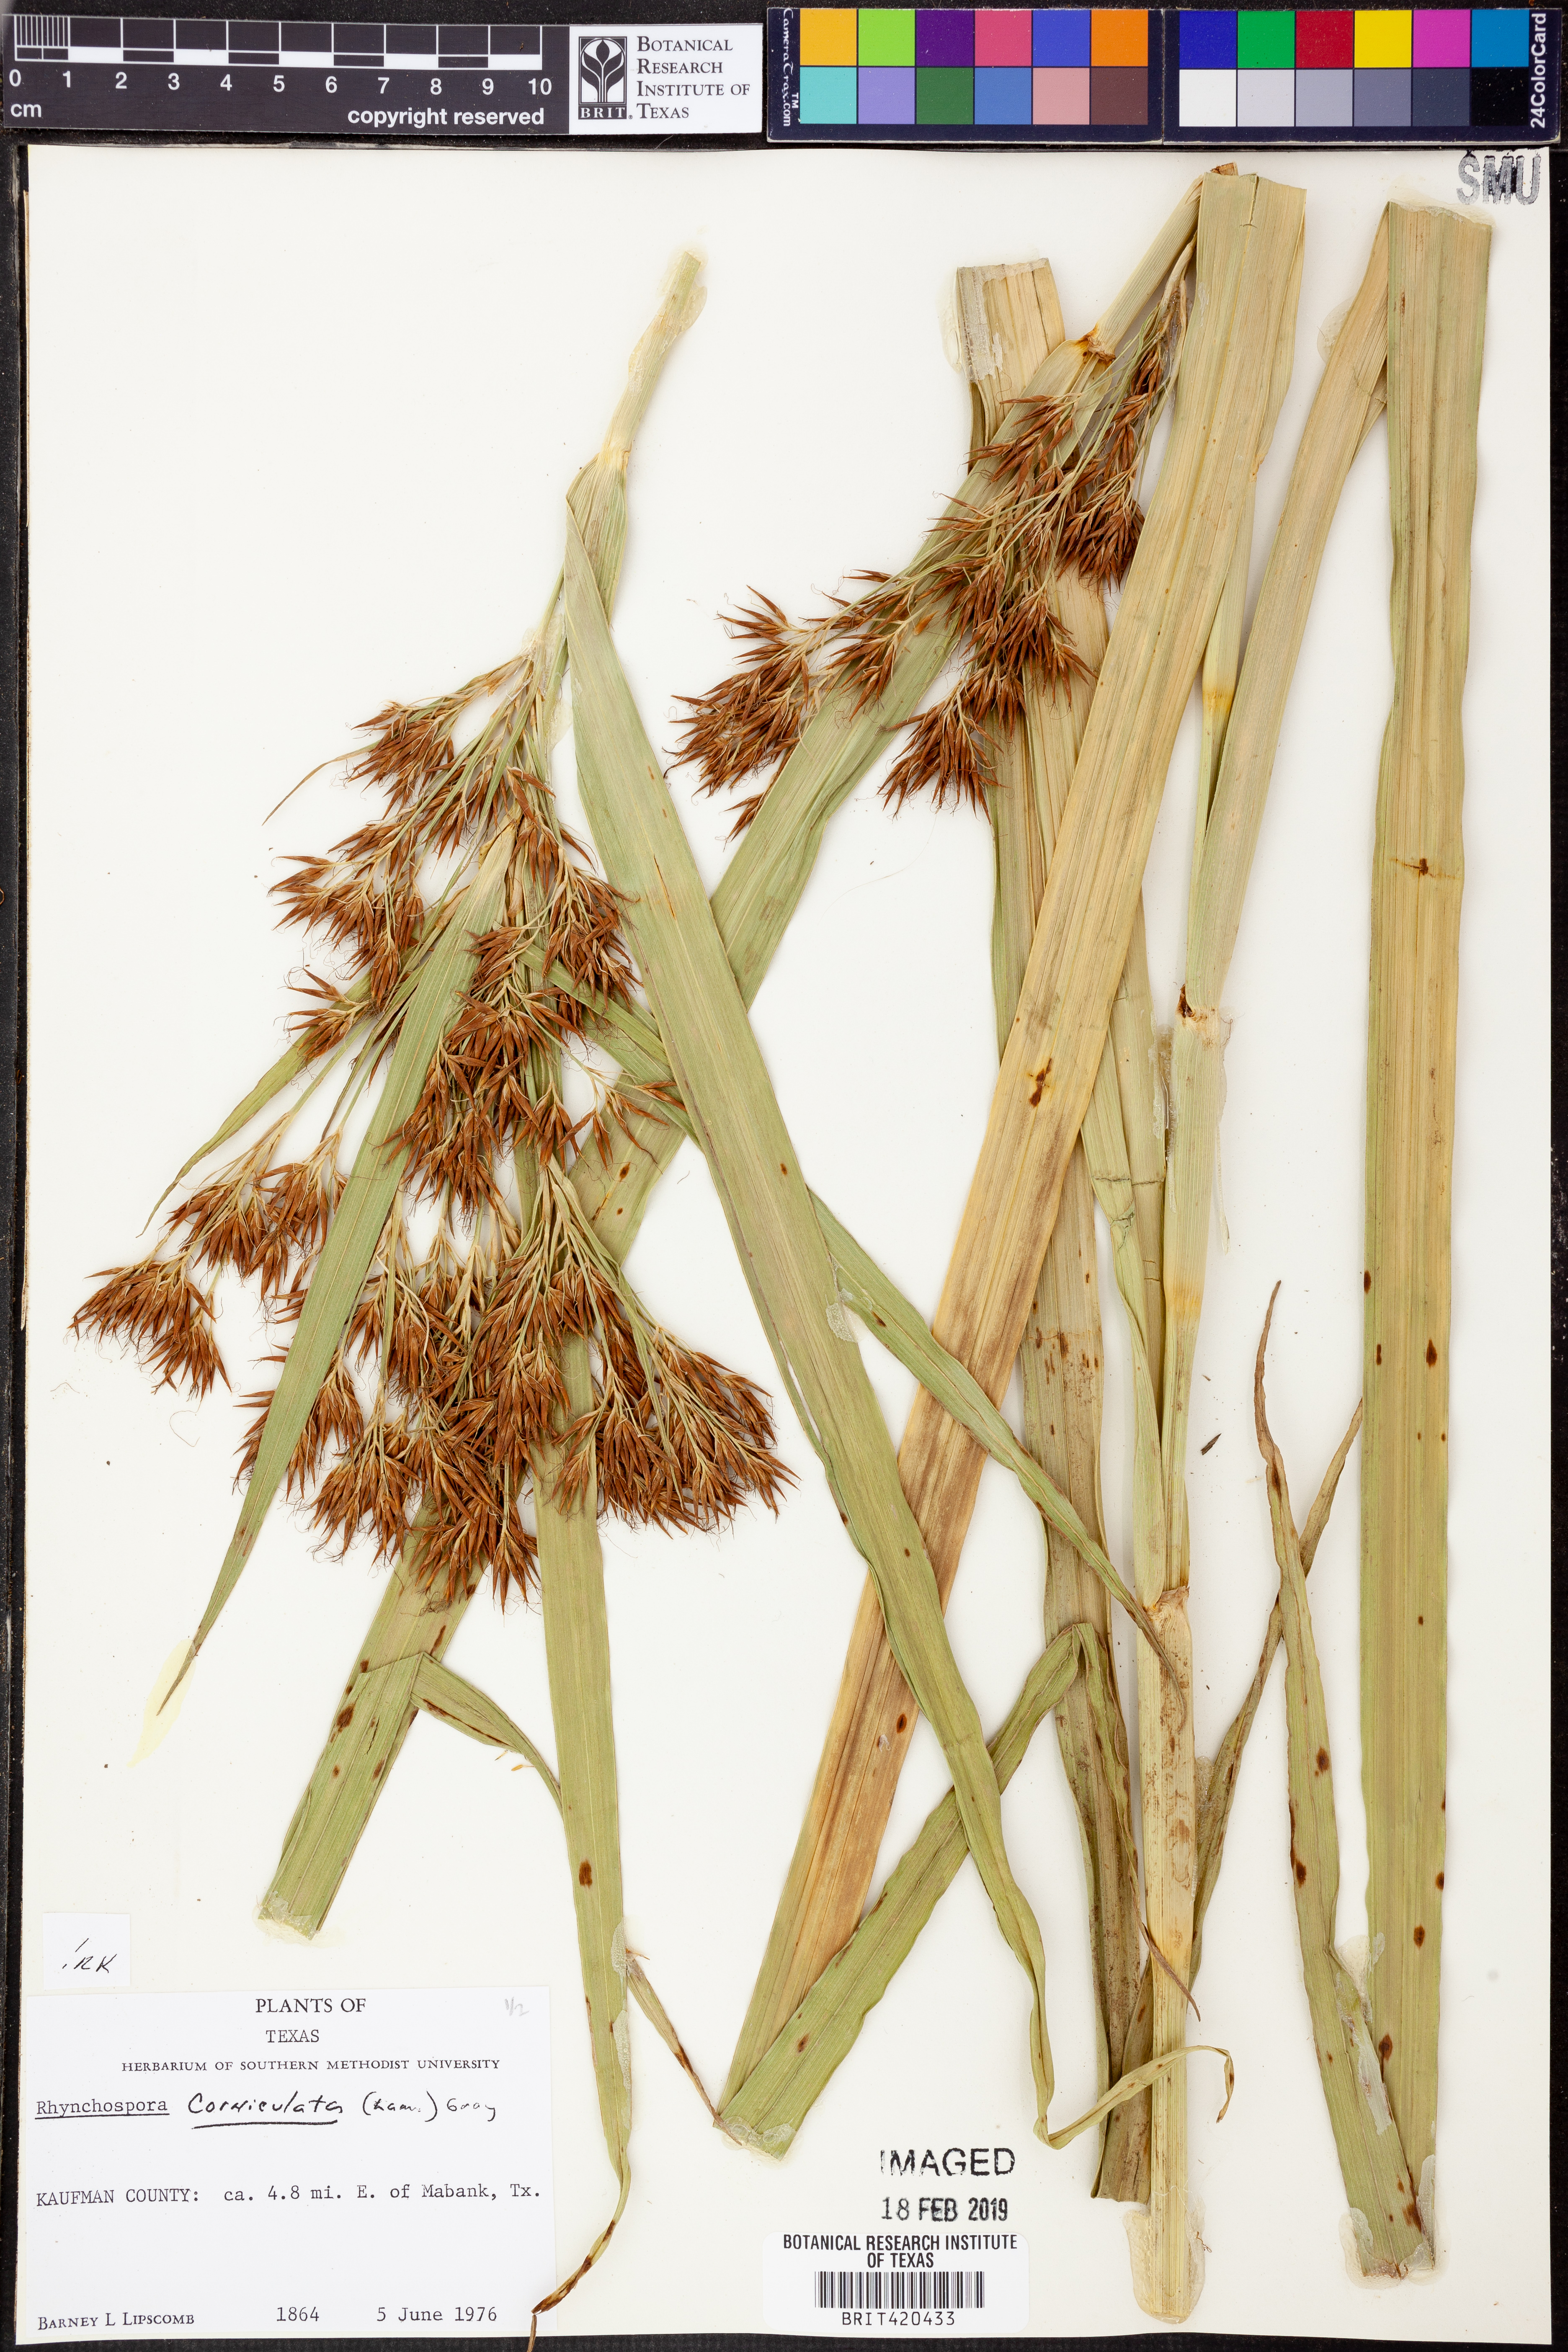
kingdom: Plantae
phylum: Tracheophyta
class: Liliopsida
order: Poales
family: Cyperaceae
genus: Rhynchospora
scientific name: Rhynchospora corniculata
